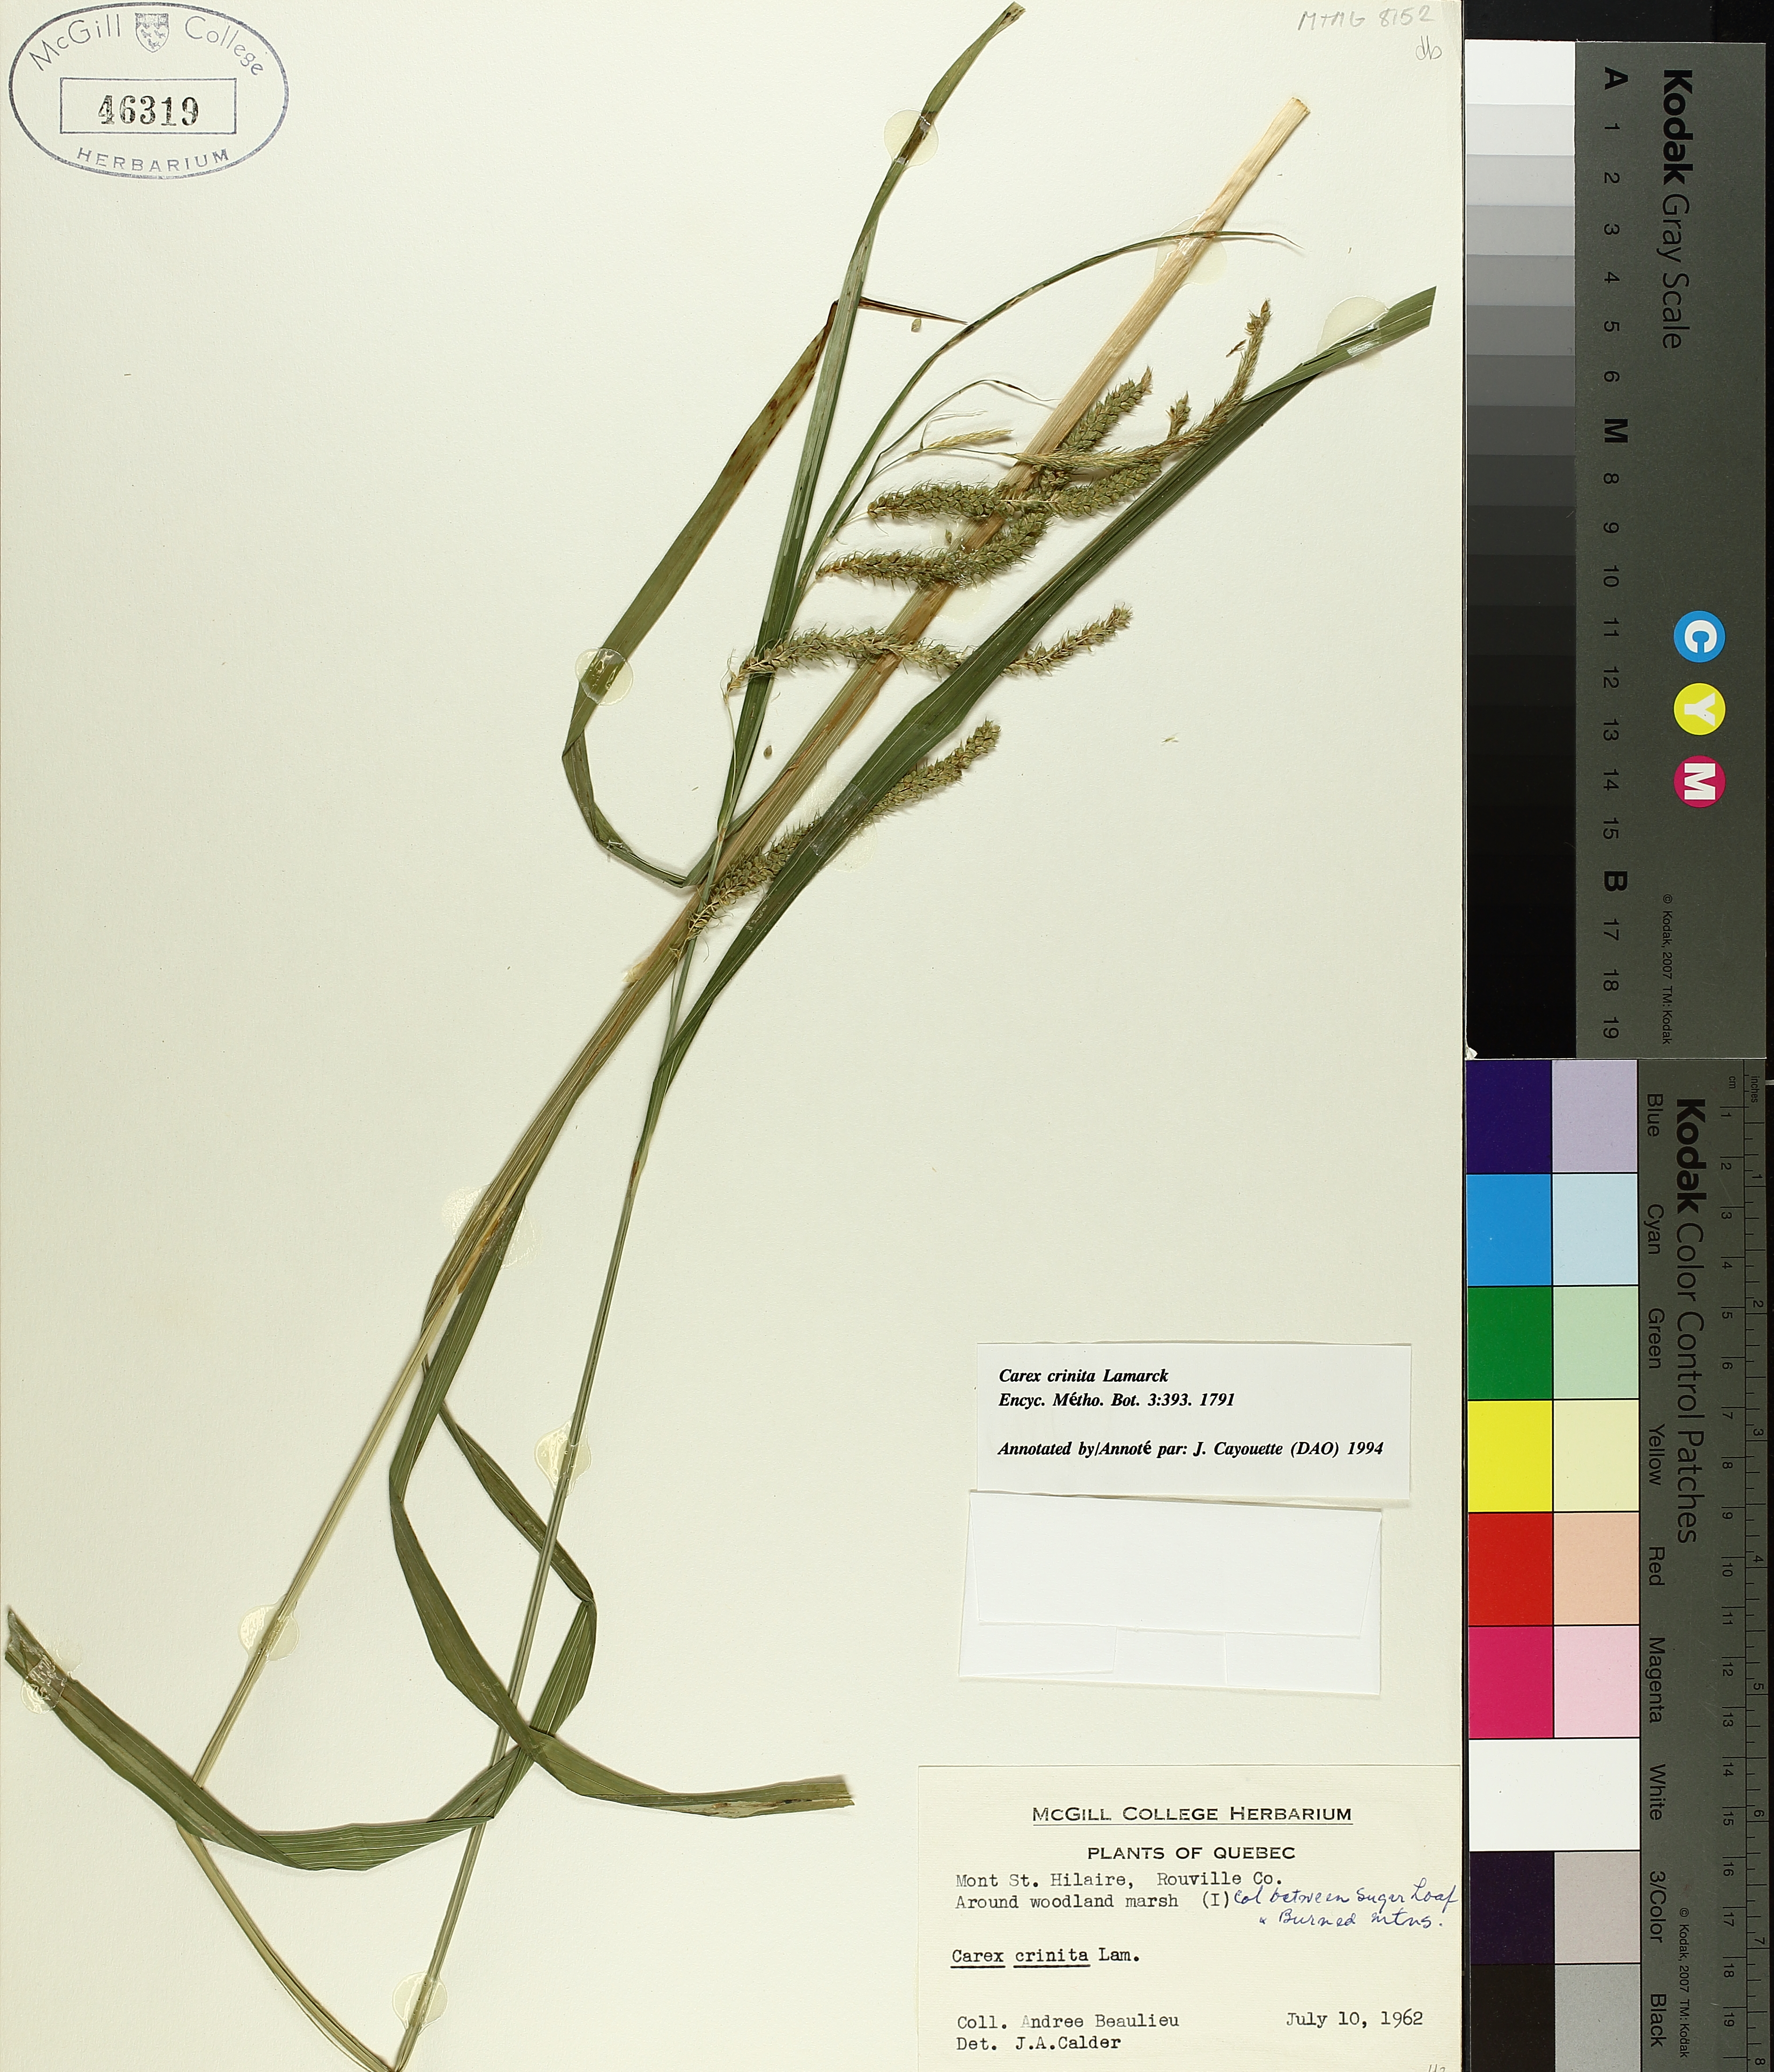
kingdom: Plantae
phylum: Tracheophyta
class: Liliopsida
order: Poales
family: Cyperaceae
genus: Carex
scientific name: Carex crinita
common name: Fringed sedge
